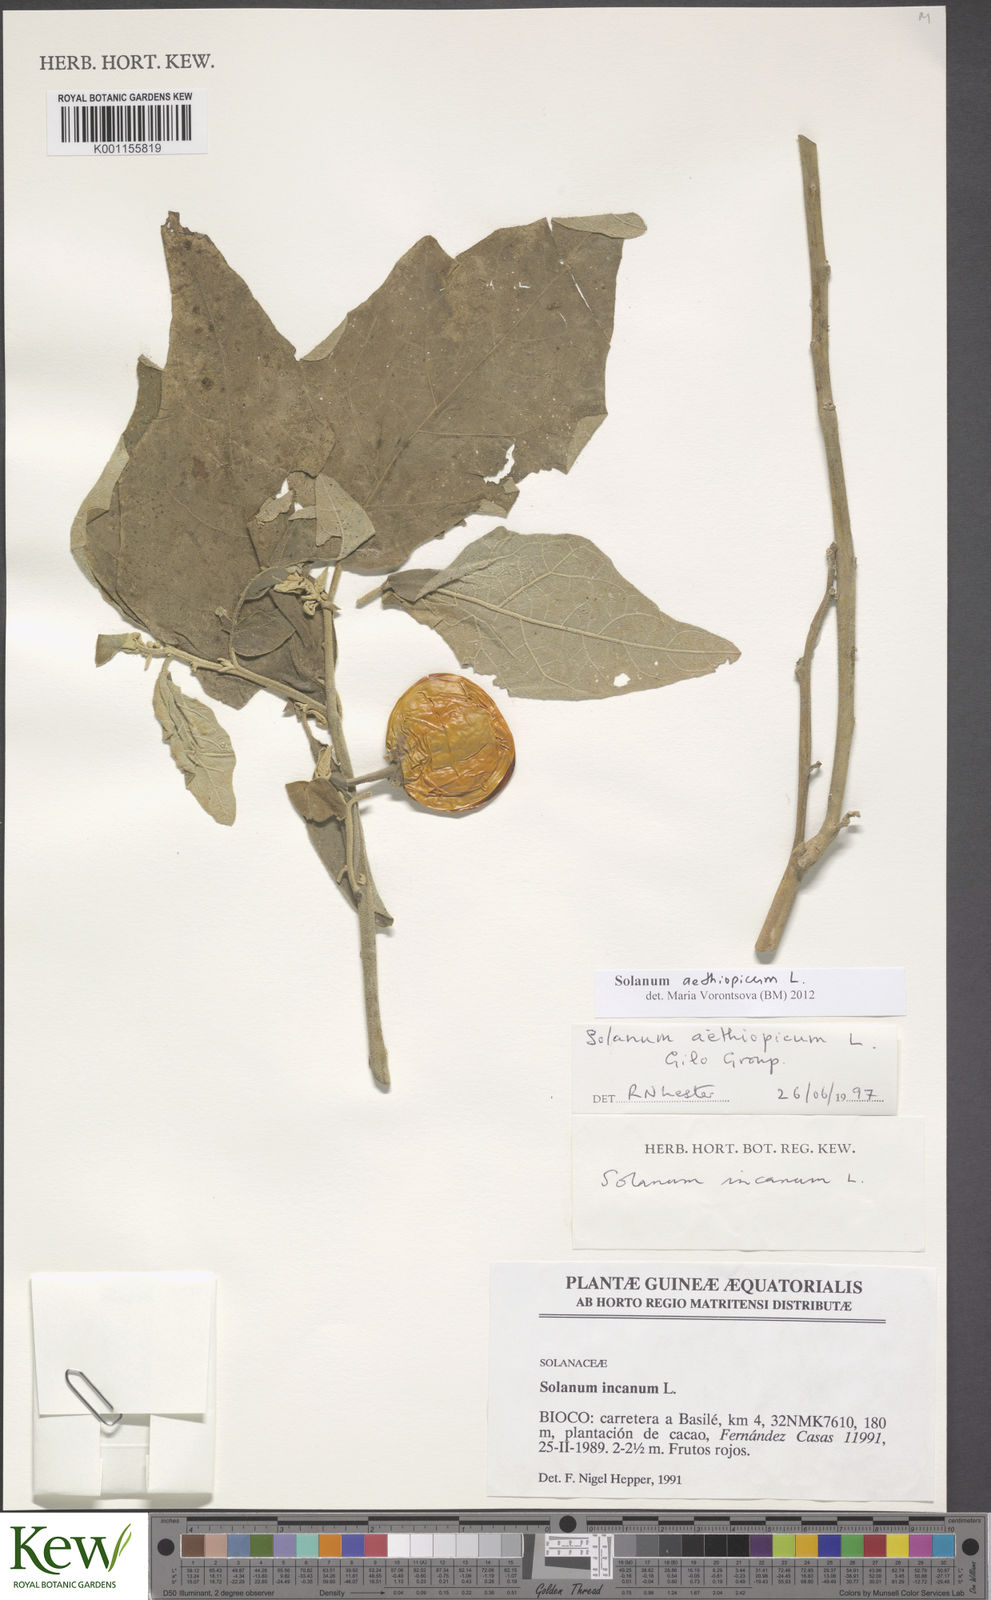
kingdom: Plantae
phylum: Tracheophyta
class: Magnoliopsida
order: Solanales
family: Solanaceae
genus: Solanum
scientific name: Solanum aethiopicum
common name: Gilo
